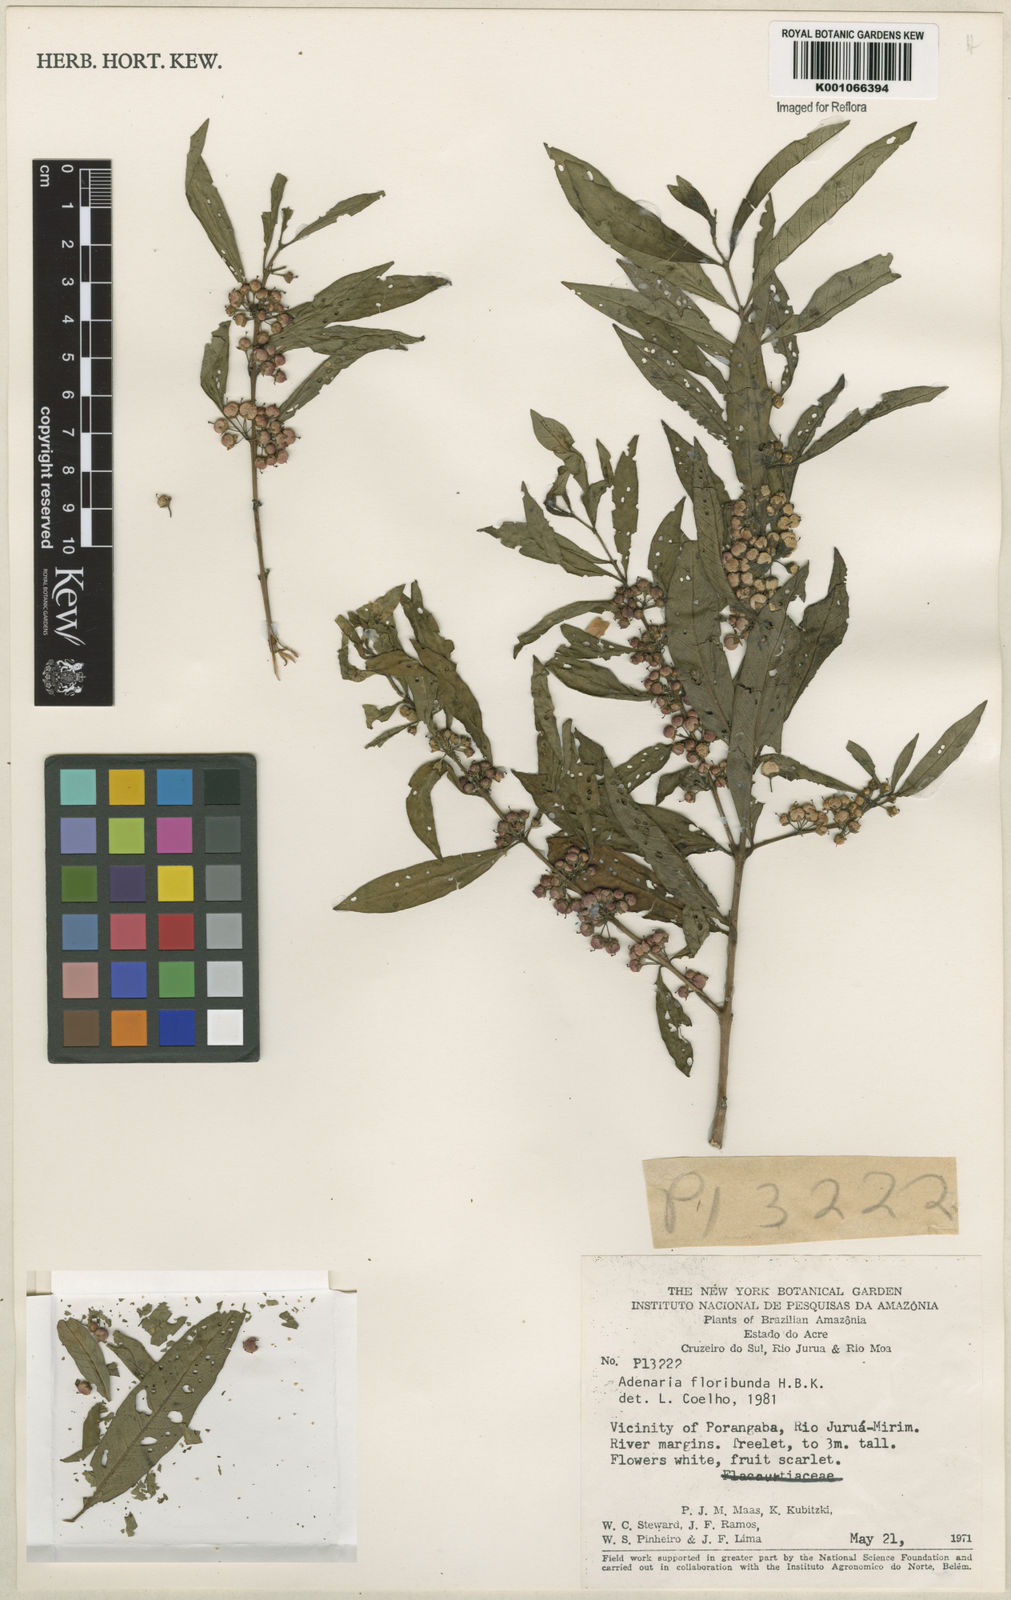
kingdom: Plantae
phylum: Tracheophyta
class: Magnoliopsida
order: Myrtales
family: Lythraceae
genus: Adenaria
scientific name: Adenaria floribunda
